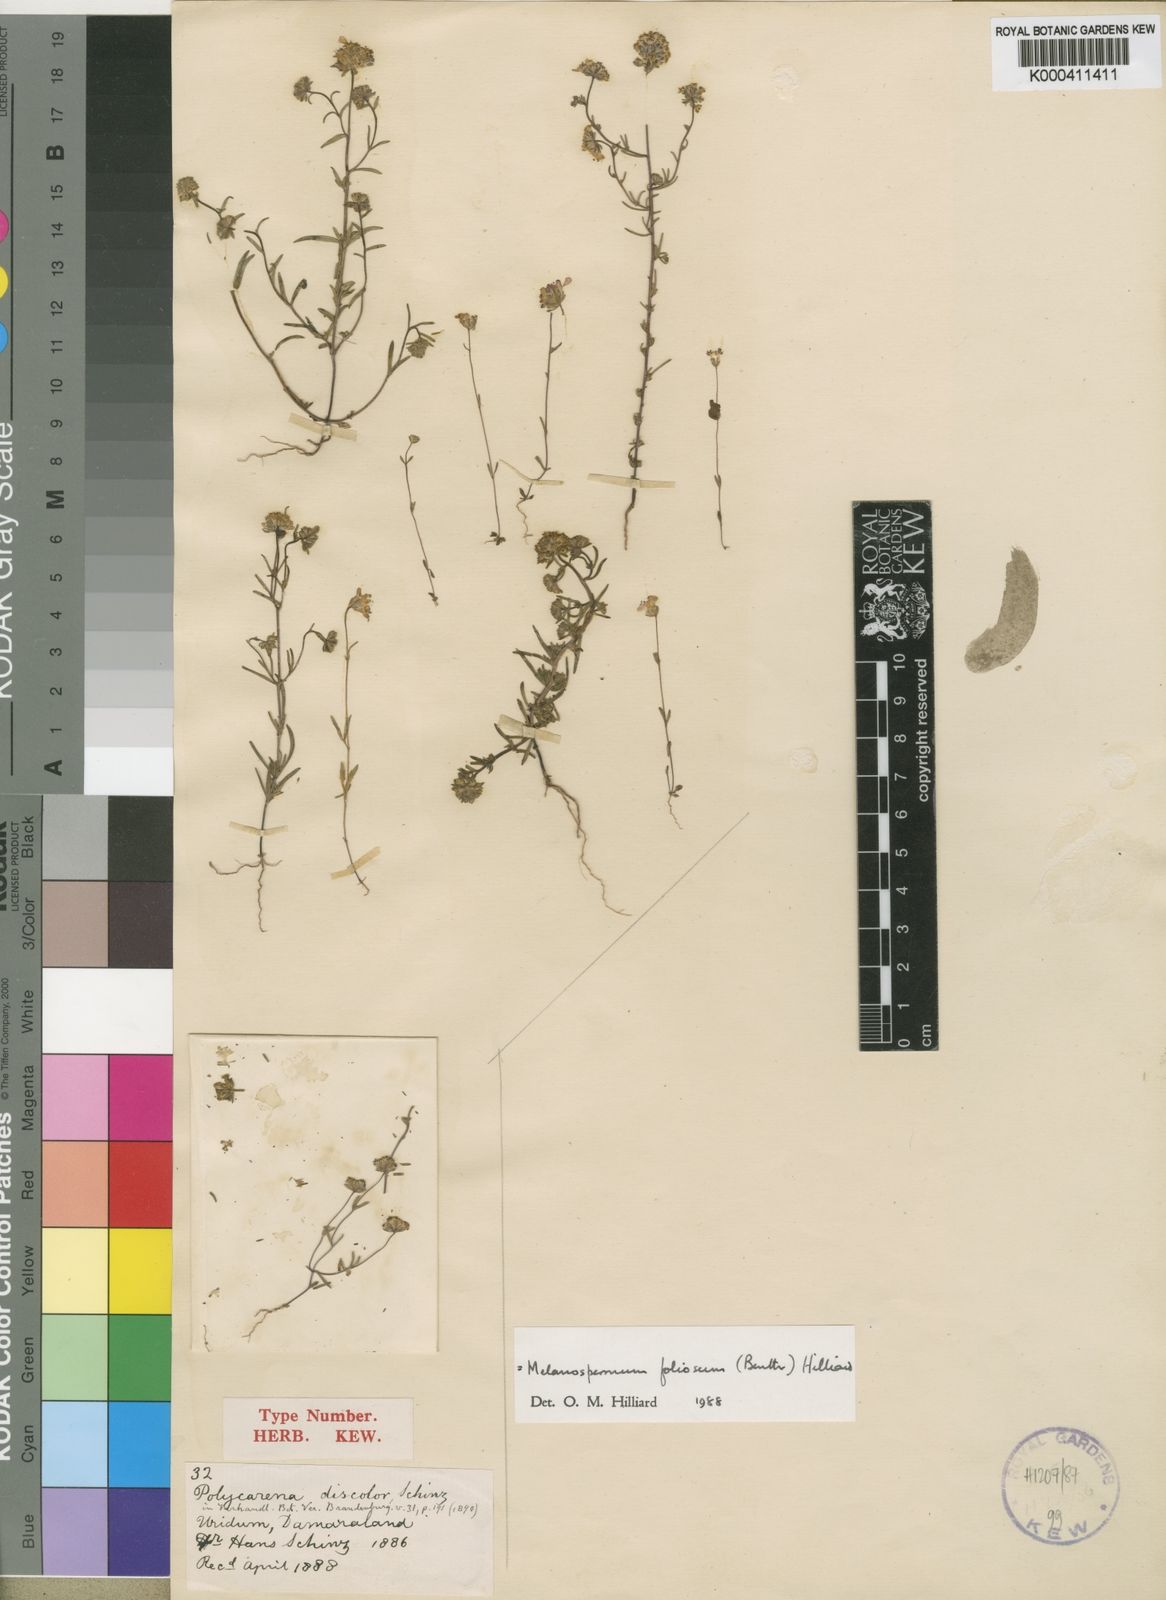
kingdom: Plantae
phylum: Tracheophyta
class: Magnoliopsida
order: Lamiales
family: Scrophulariaceae
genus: Melanospermum
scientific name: Melanospermum foliosum
